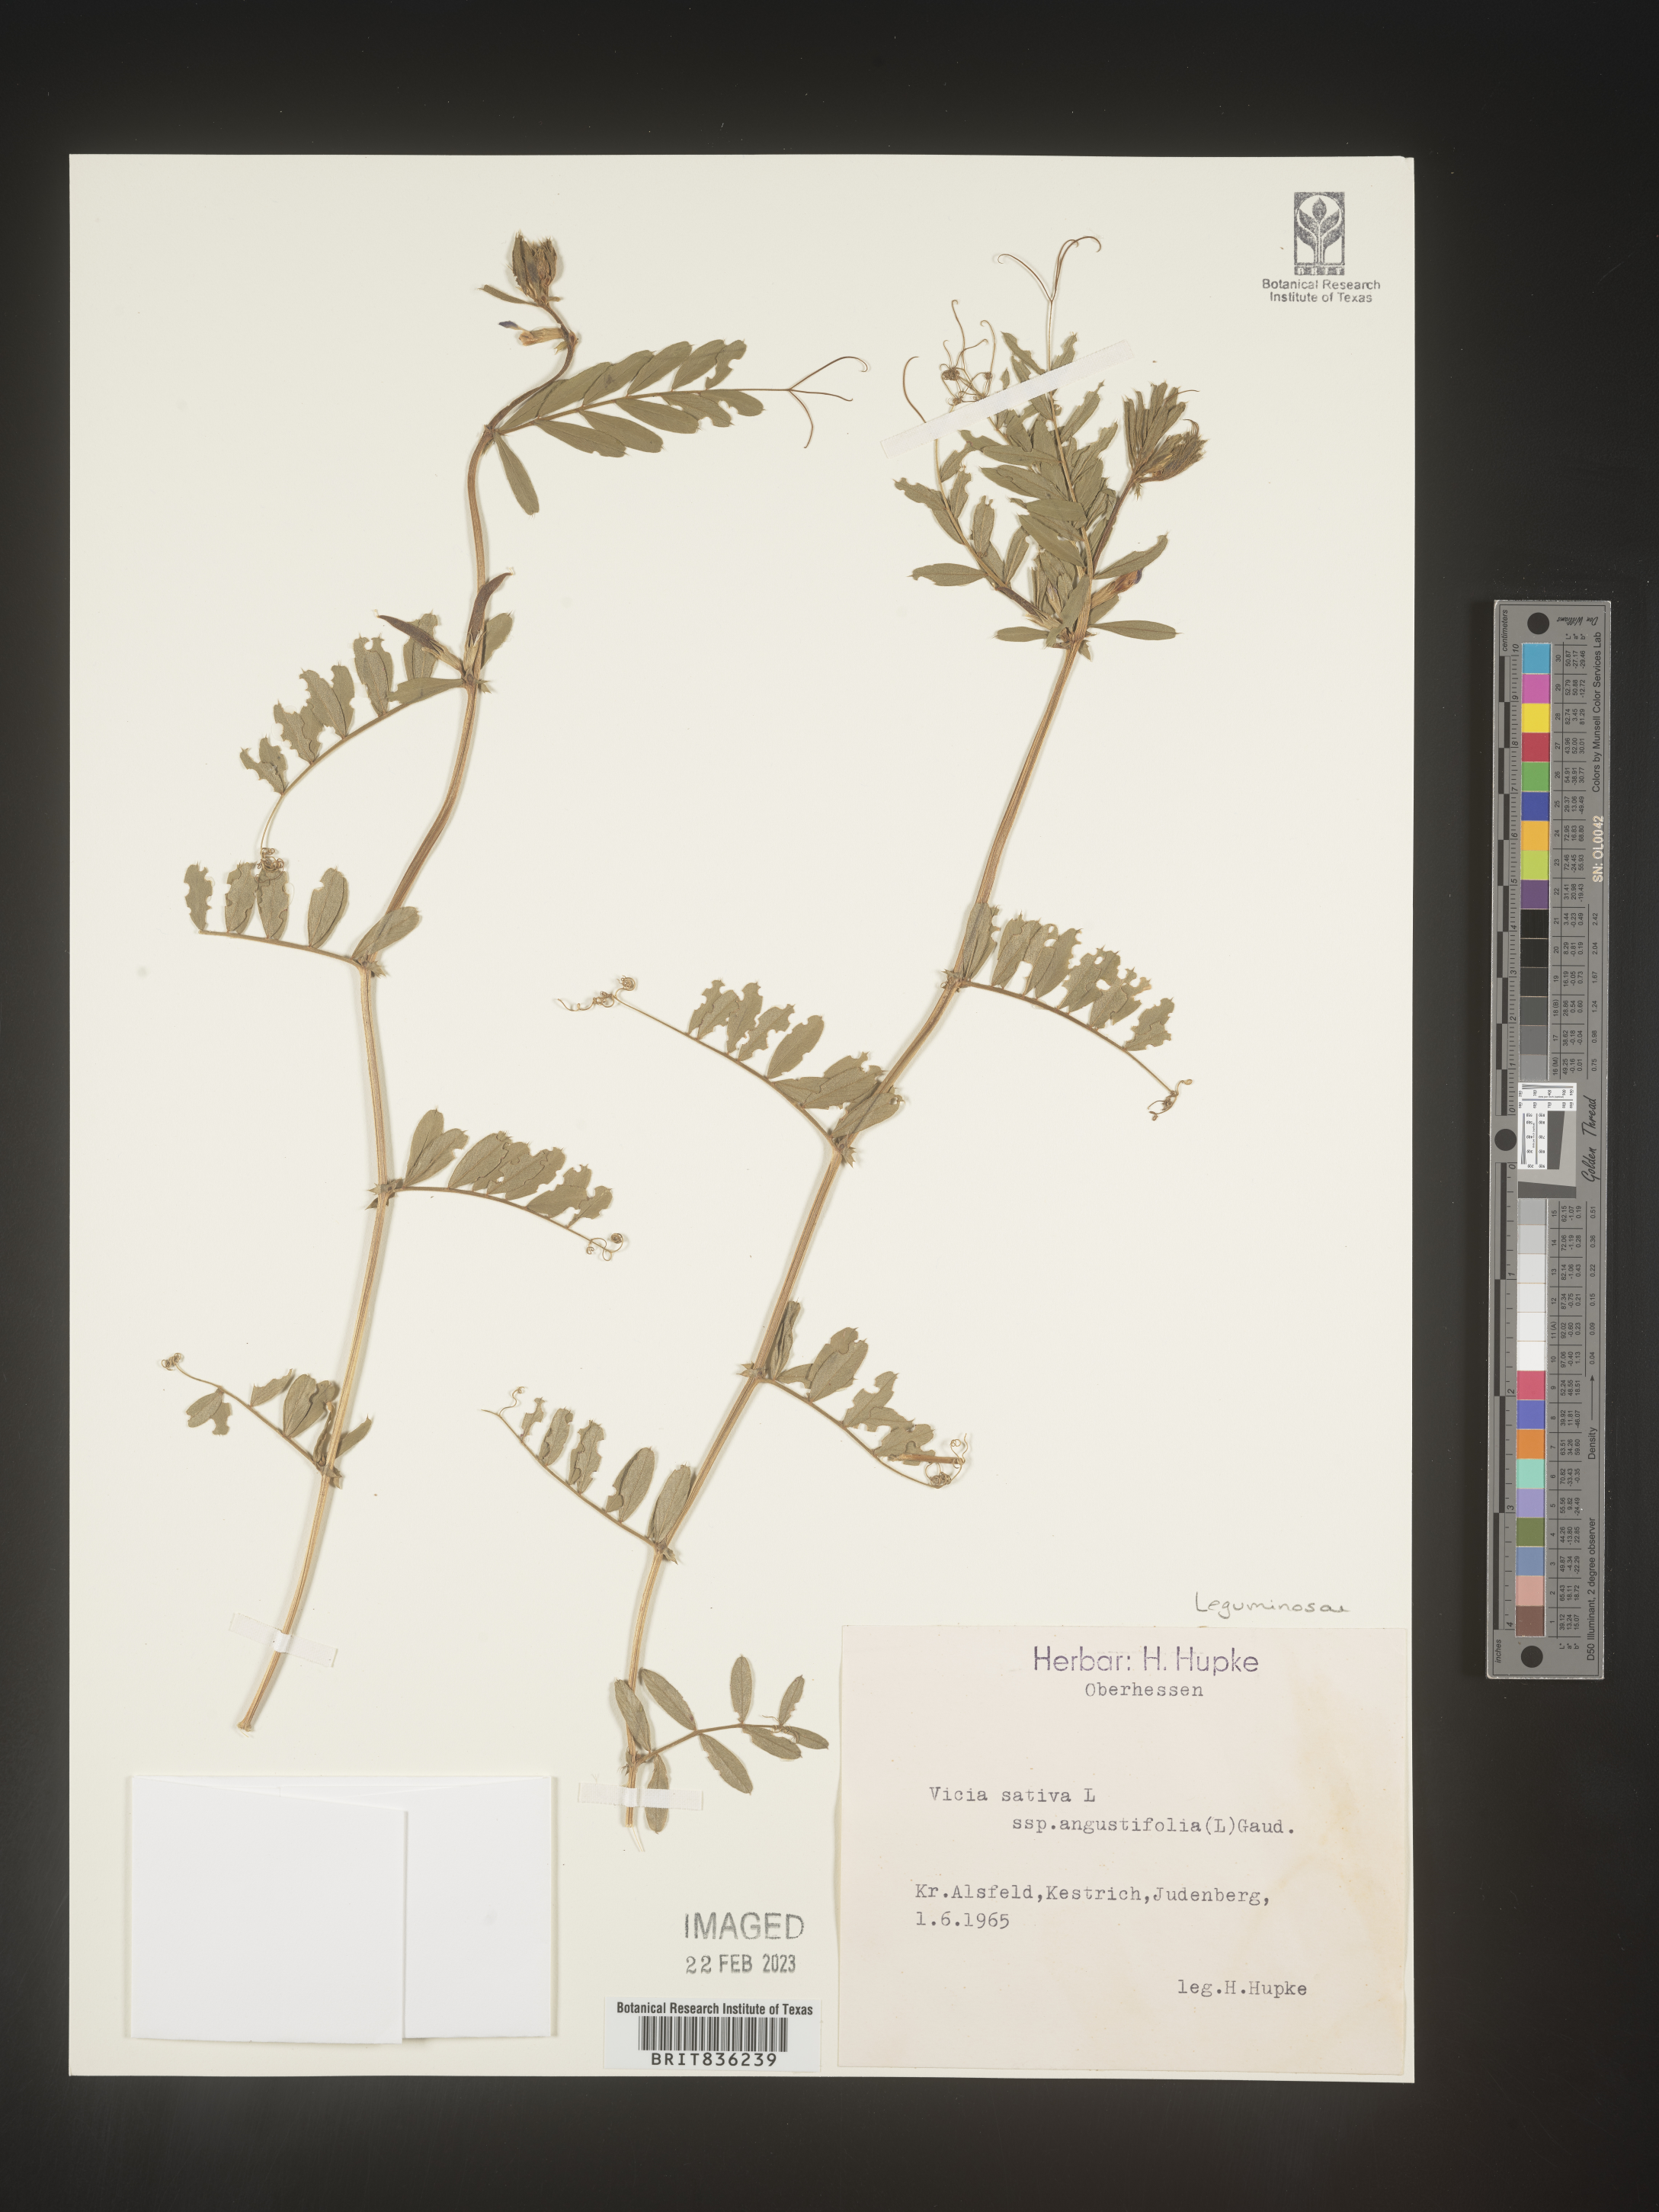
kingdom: Plantae
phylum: Tracheophyta
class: Magnoliopsida
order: Fabales
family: Fabaceae
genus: Vicia
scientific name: Vicia
